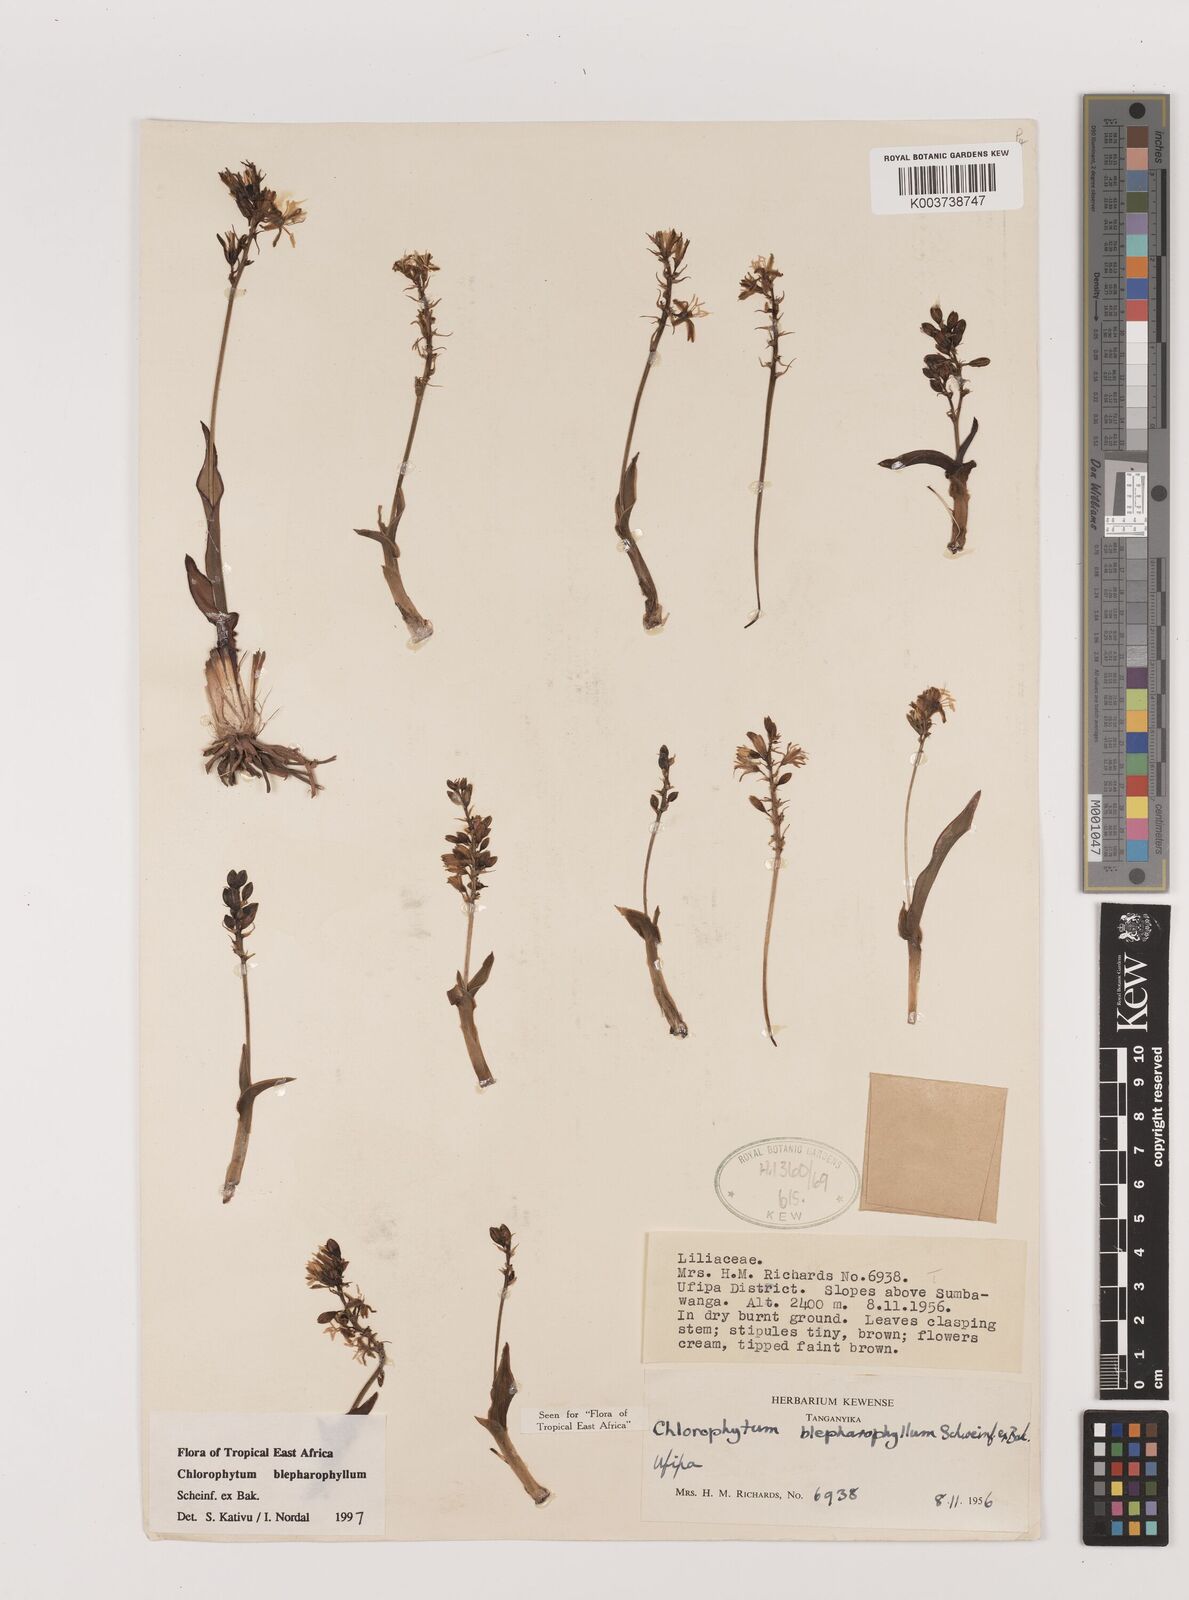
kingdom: Plantae
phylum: Tracheophyta
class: Liliopsida
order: Asparagales
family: Asparagaceae
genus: Chlorophytum
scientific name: Chlorophytum blepharophyllum
